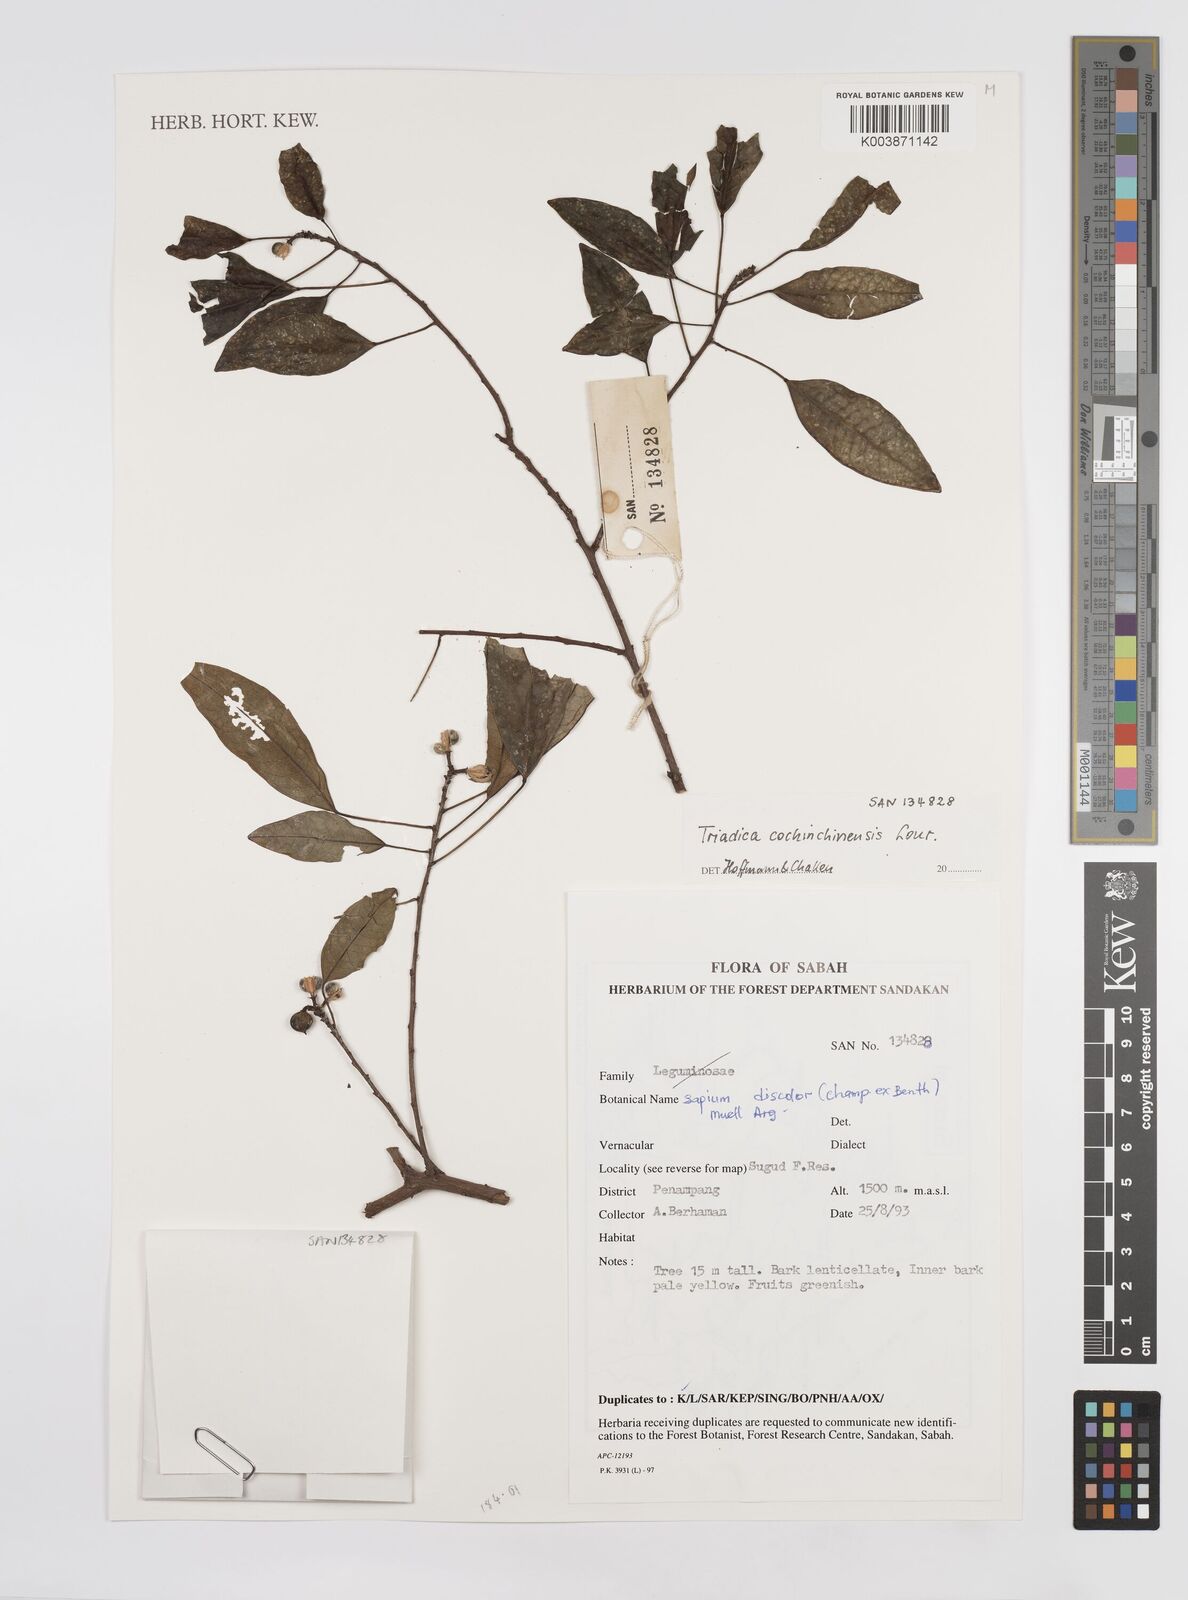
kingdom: Plantae
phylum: Tracheophyta
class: Magnoliopsida
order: Malpighiales
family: Euphorbiaceae
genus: Triadica
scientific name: Triadica cochinchinensis
